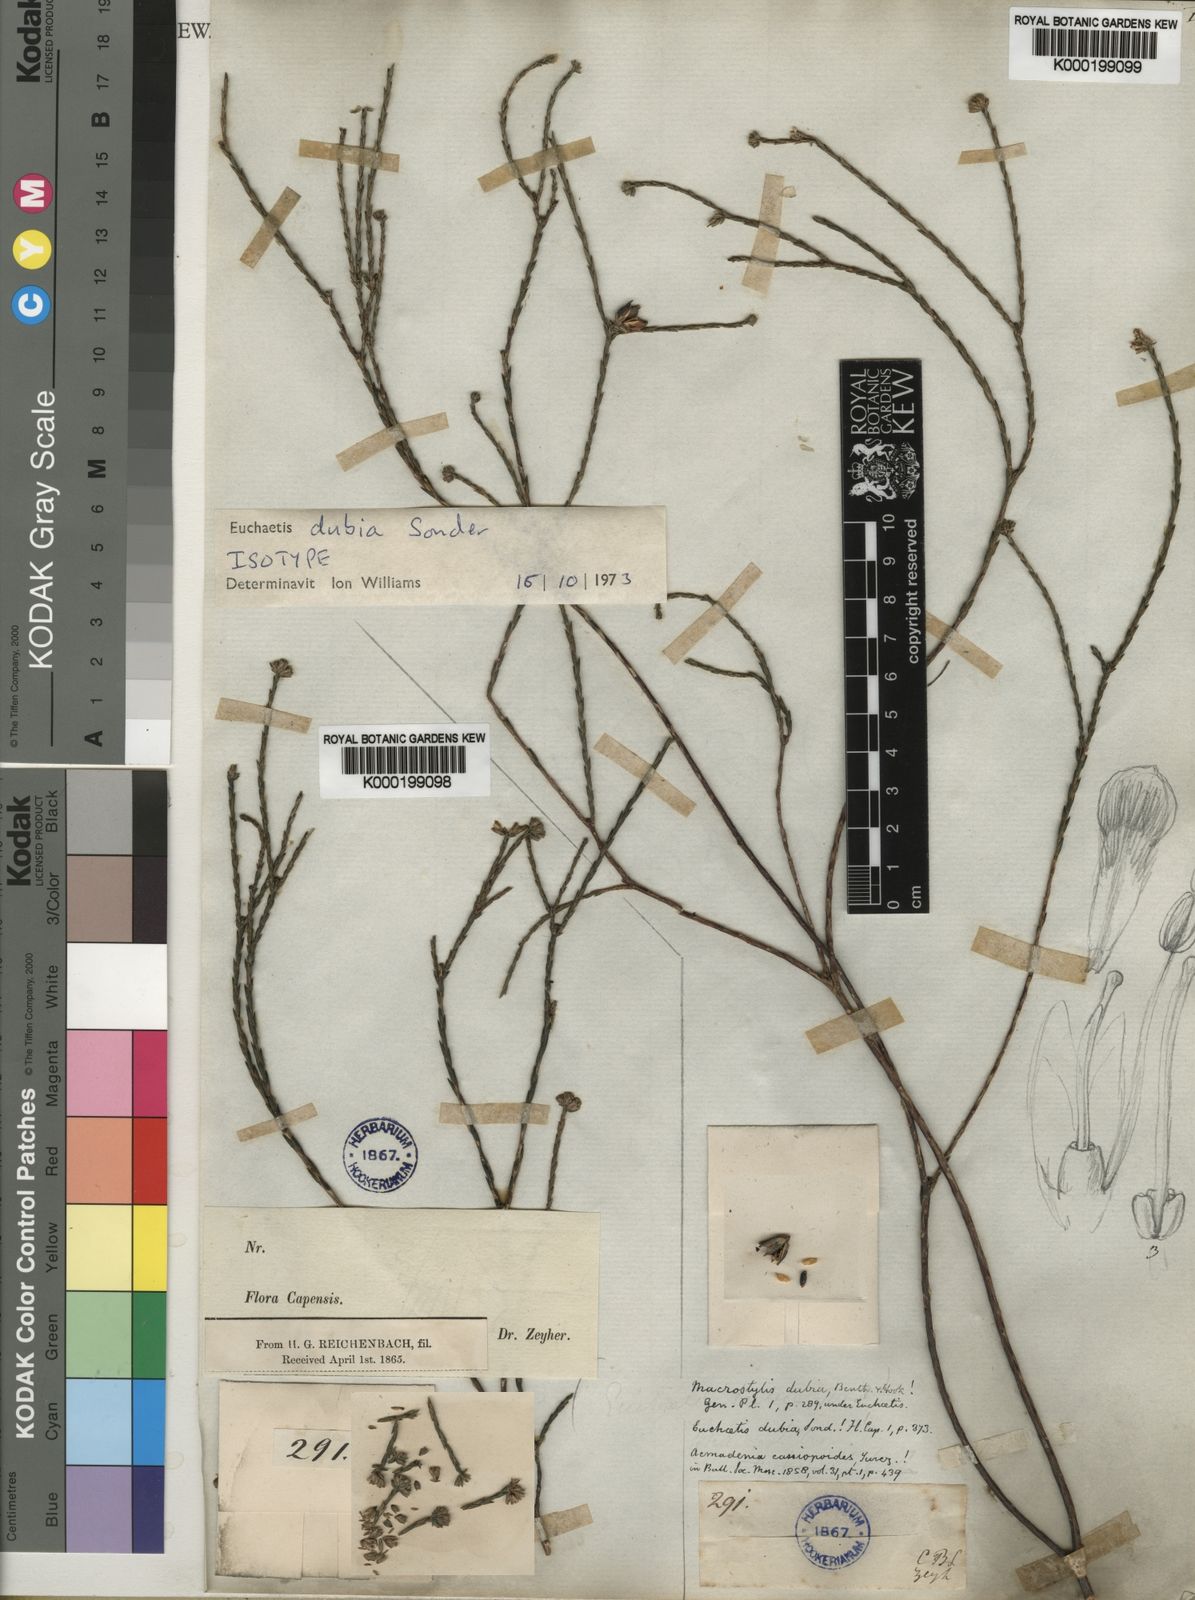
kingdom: Plantae
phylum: Tracheophyta
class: Magnoliopsida
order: Sapindales
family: Rutaceae
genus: Macrostylis
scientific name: Macrostylis cassiopoides
